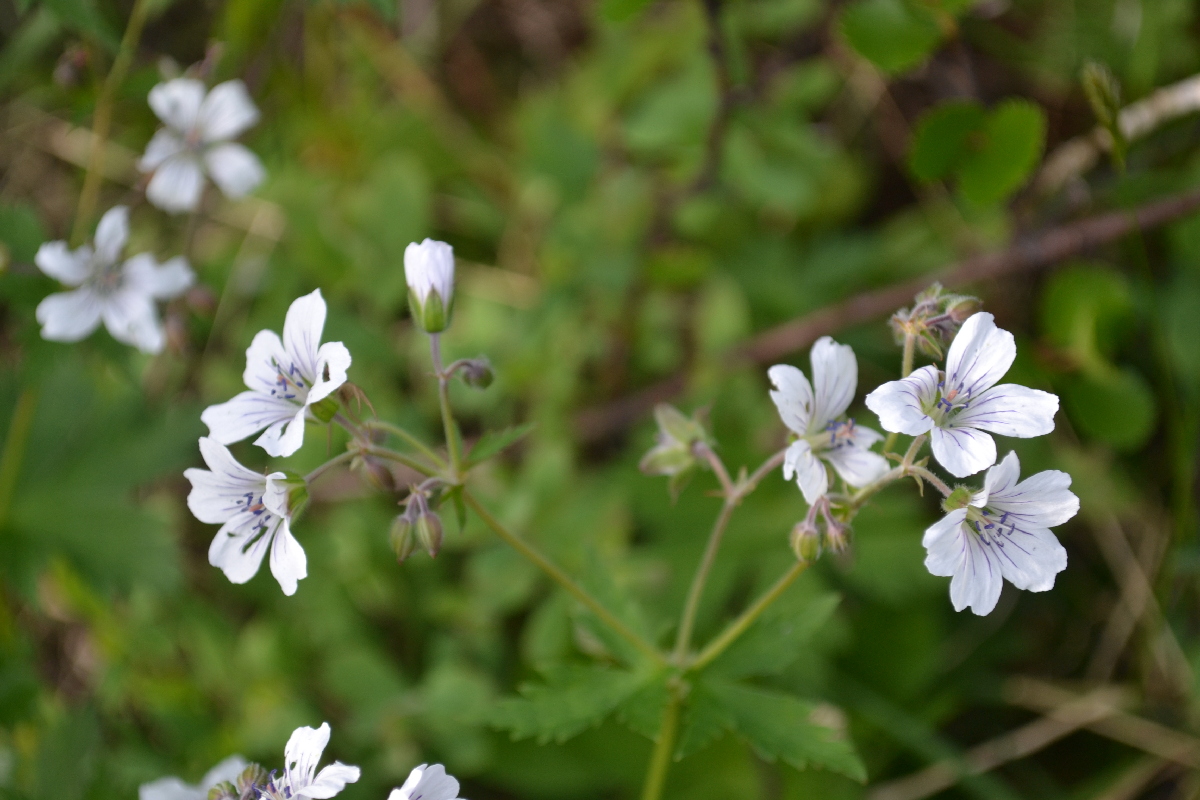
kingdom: Plantae
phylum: Tracheophyta
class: Magnoliopsida
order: Geraniales
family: Geraniaceae
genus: Geranium
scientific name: Geranium sylvaticum
